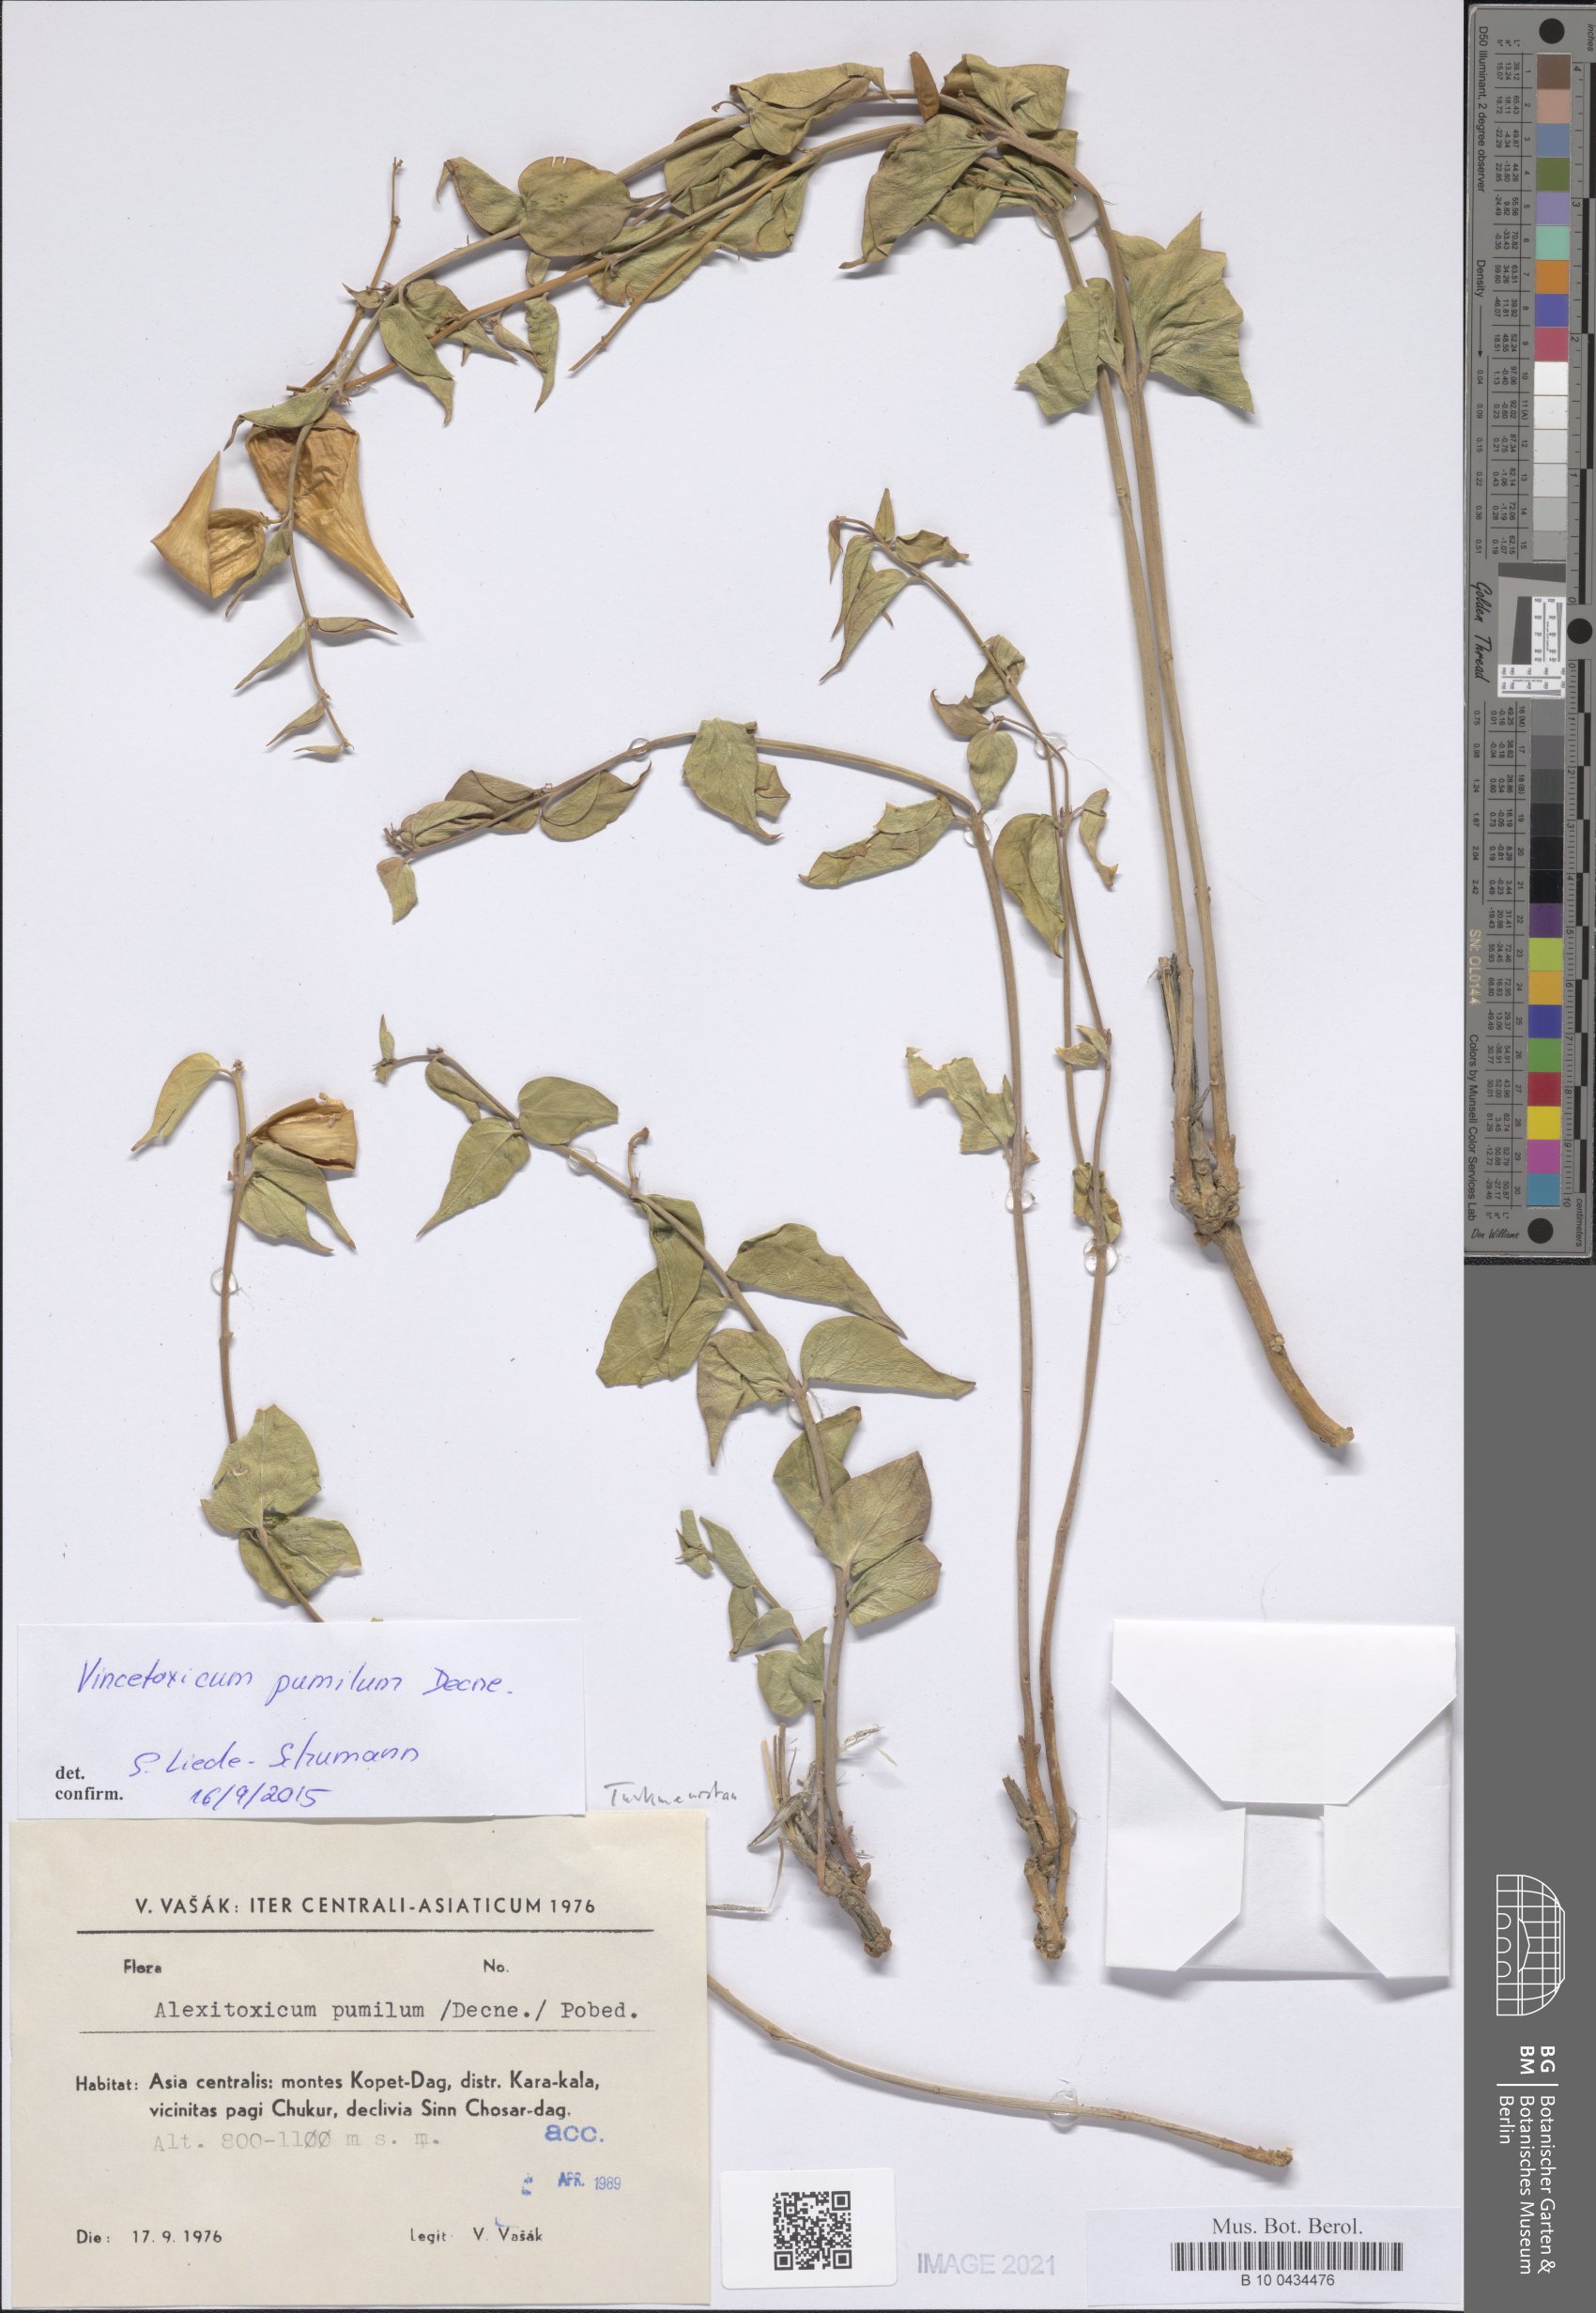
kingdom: Plantae
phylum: Tracheophyta
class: Magnoliopsida
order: Gentianales
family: Apocynaceae
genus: Vincetoxicum
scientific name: Vincetoxicum pumilum
